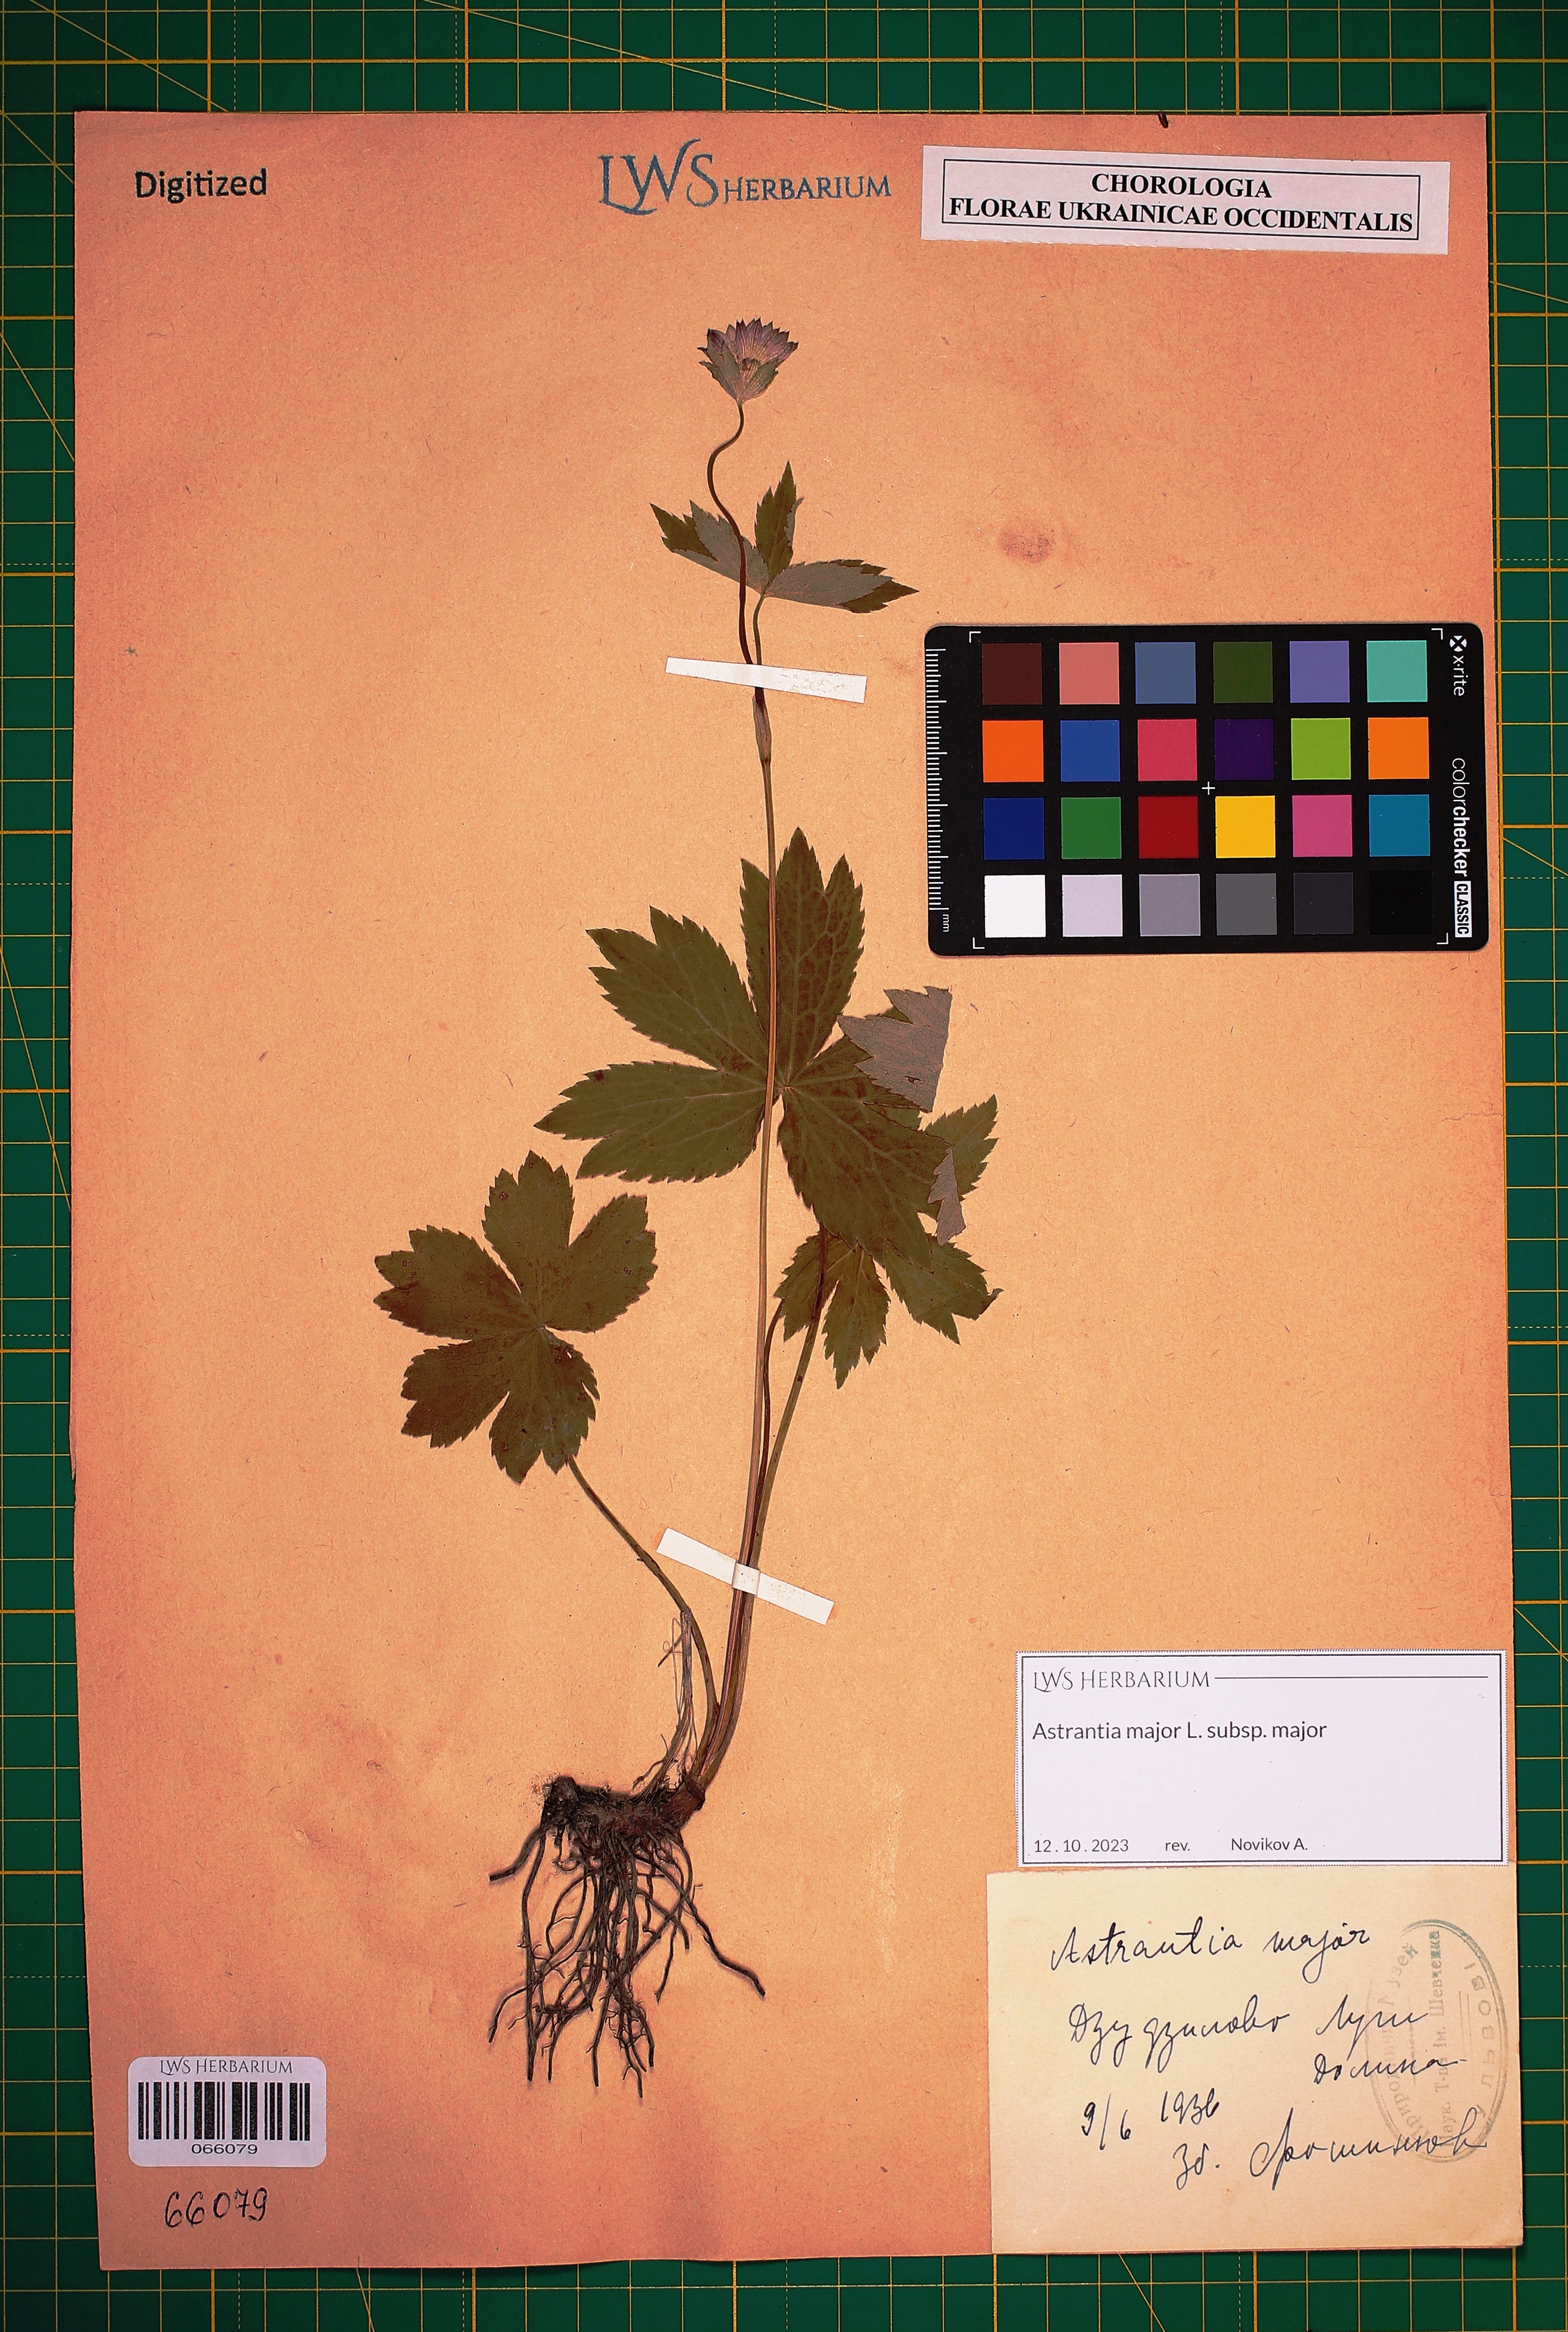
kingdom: Plantae
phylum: Tracheophyta
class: Magnoliopsida
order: Apiales
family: Apiaceae
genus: Astrantia
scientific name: Astrantia major
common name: Greater masterwort
